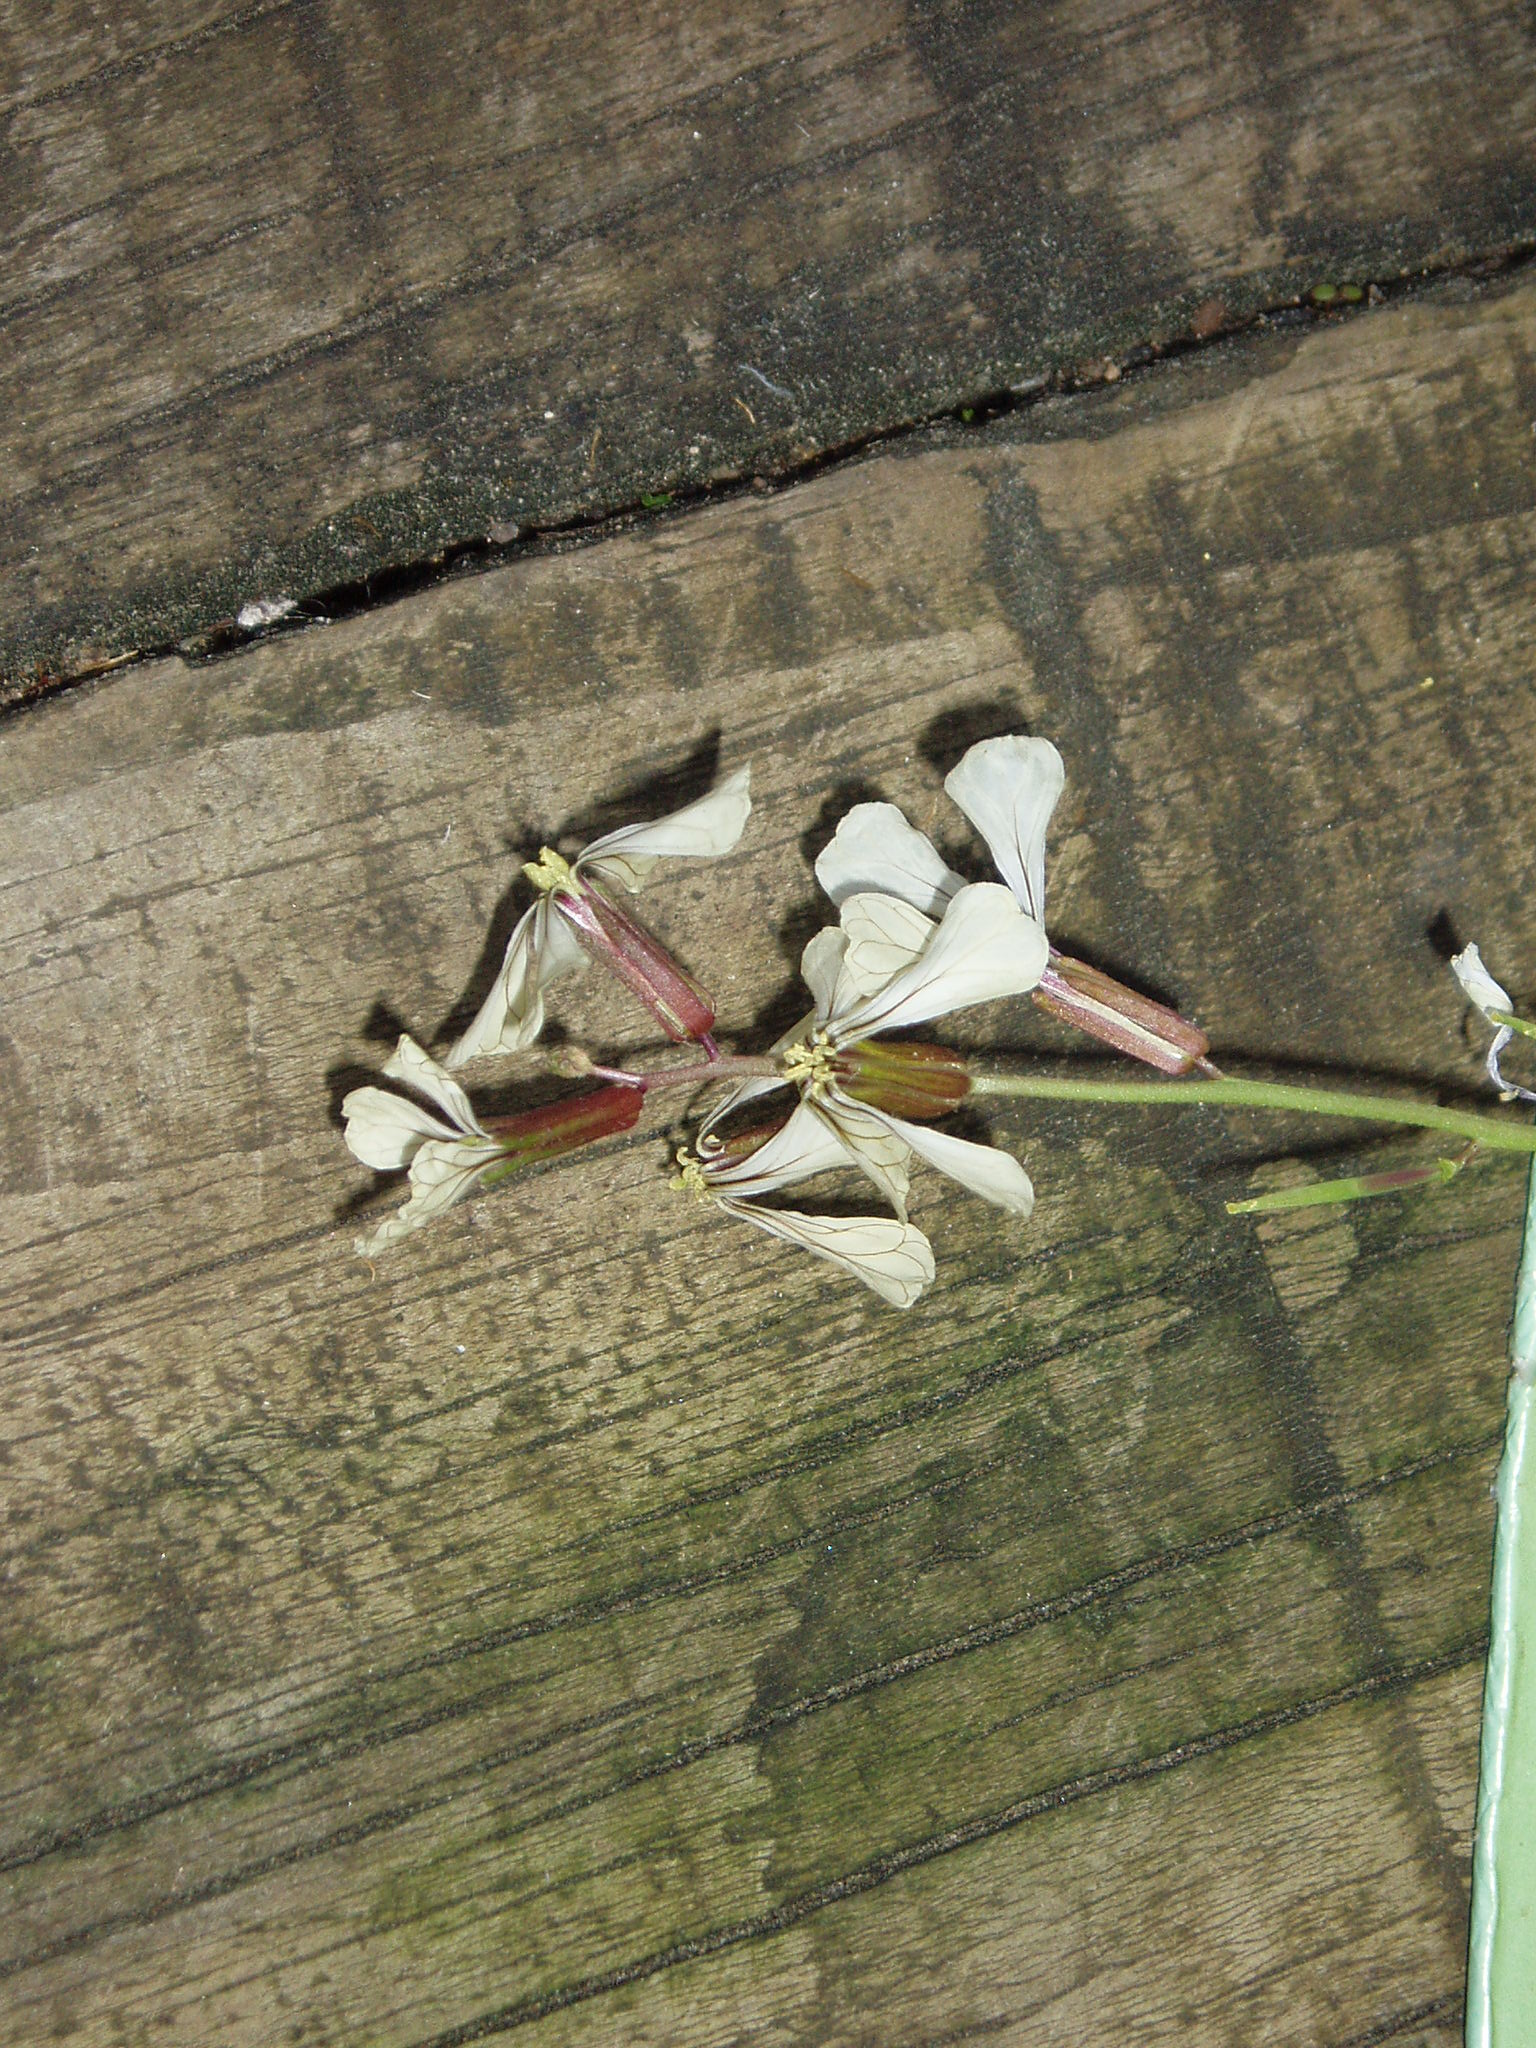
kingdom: Plantae
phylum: Tracheophyta
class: Magnoliopsida
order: Brassicales
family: Brassicaceae
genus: Raphanus
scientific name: Raphanus raphanistrum
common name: Wild radish
